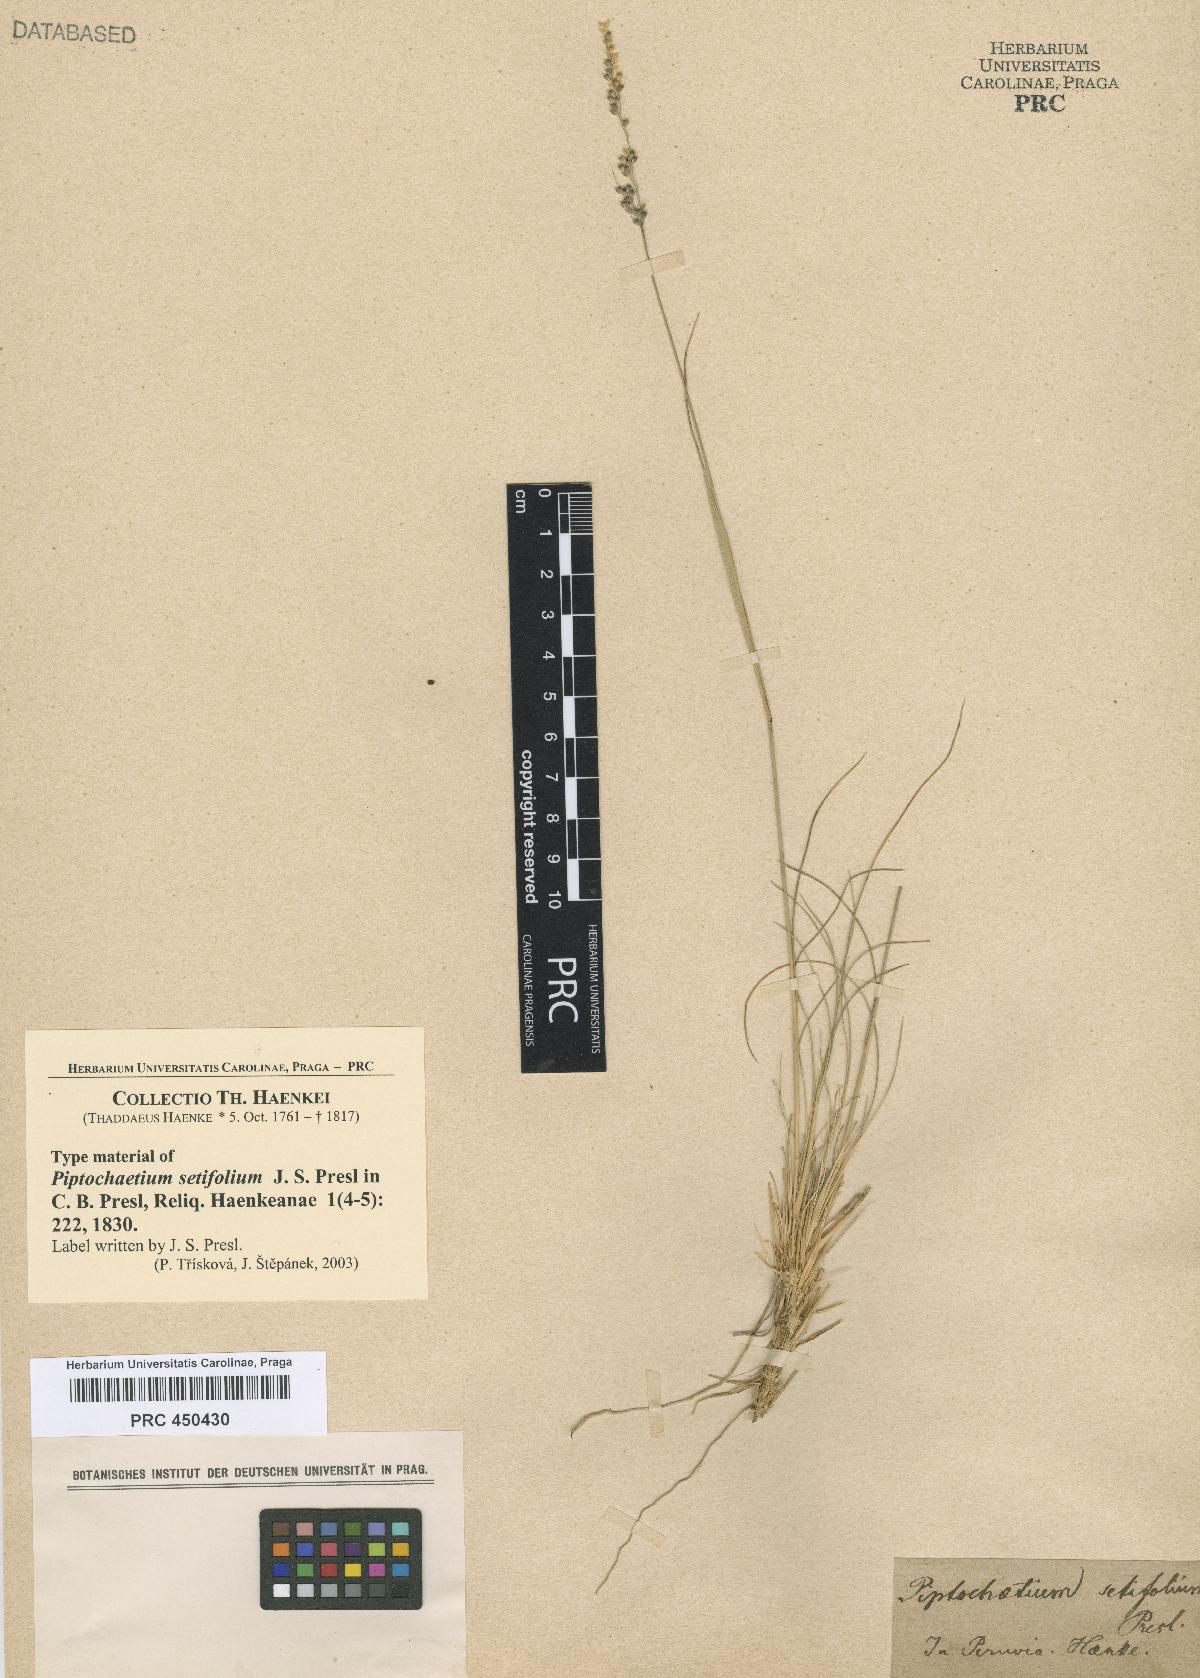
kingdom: Plantae
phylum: Tracheophyta
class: Liliopsida
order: Poales
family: Poaceae
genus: Piptochaetium
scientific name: Piptochaetium panicoides
